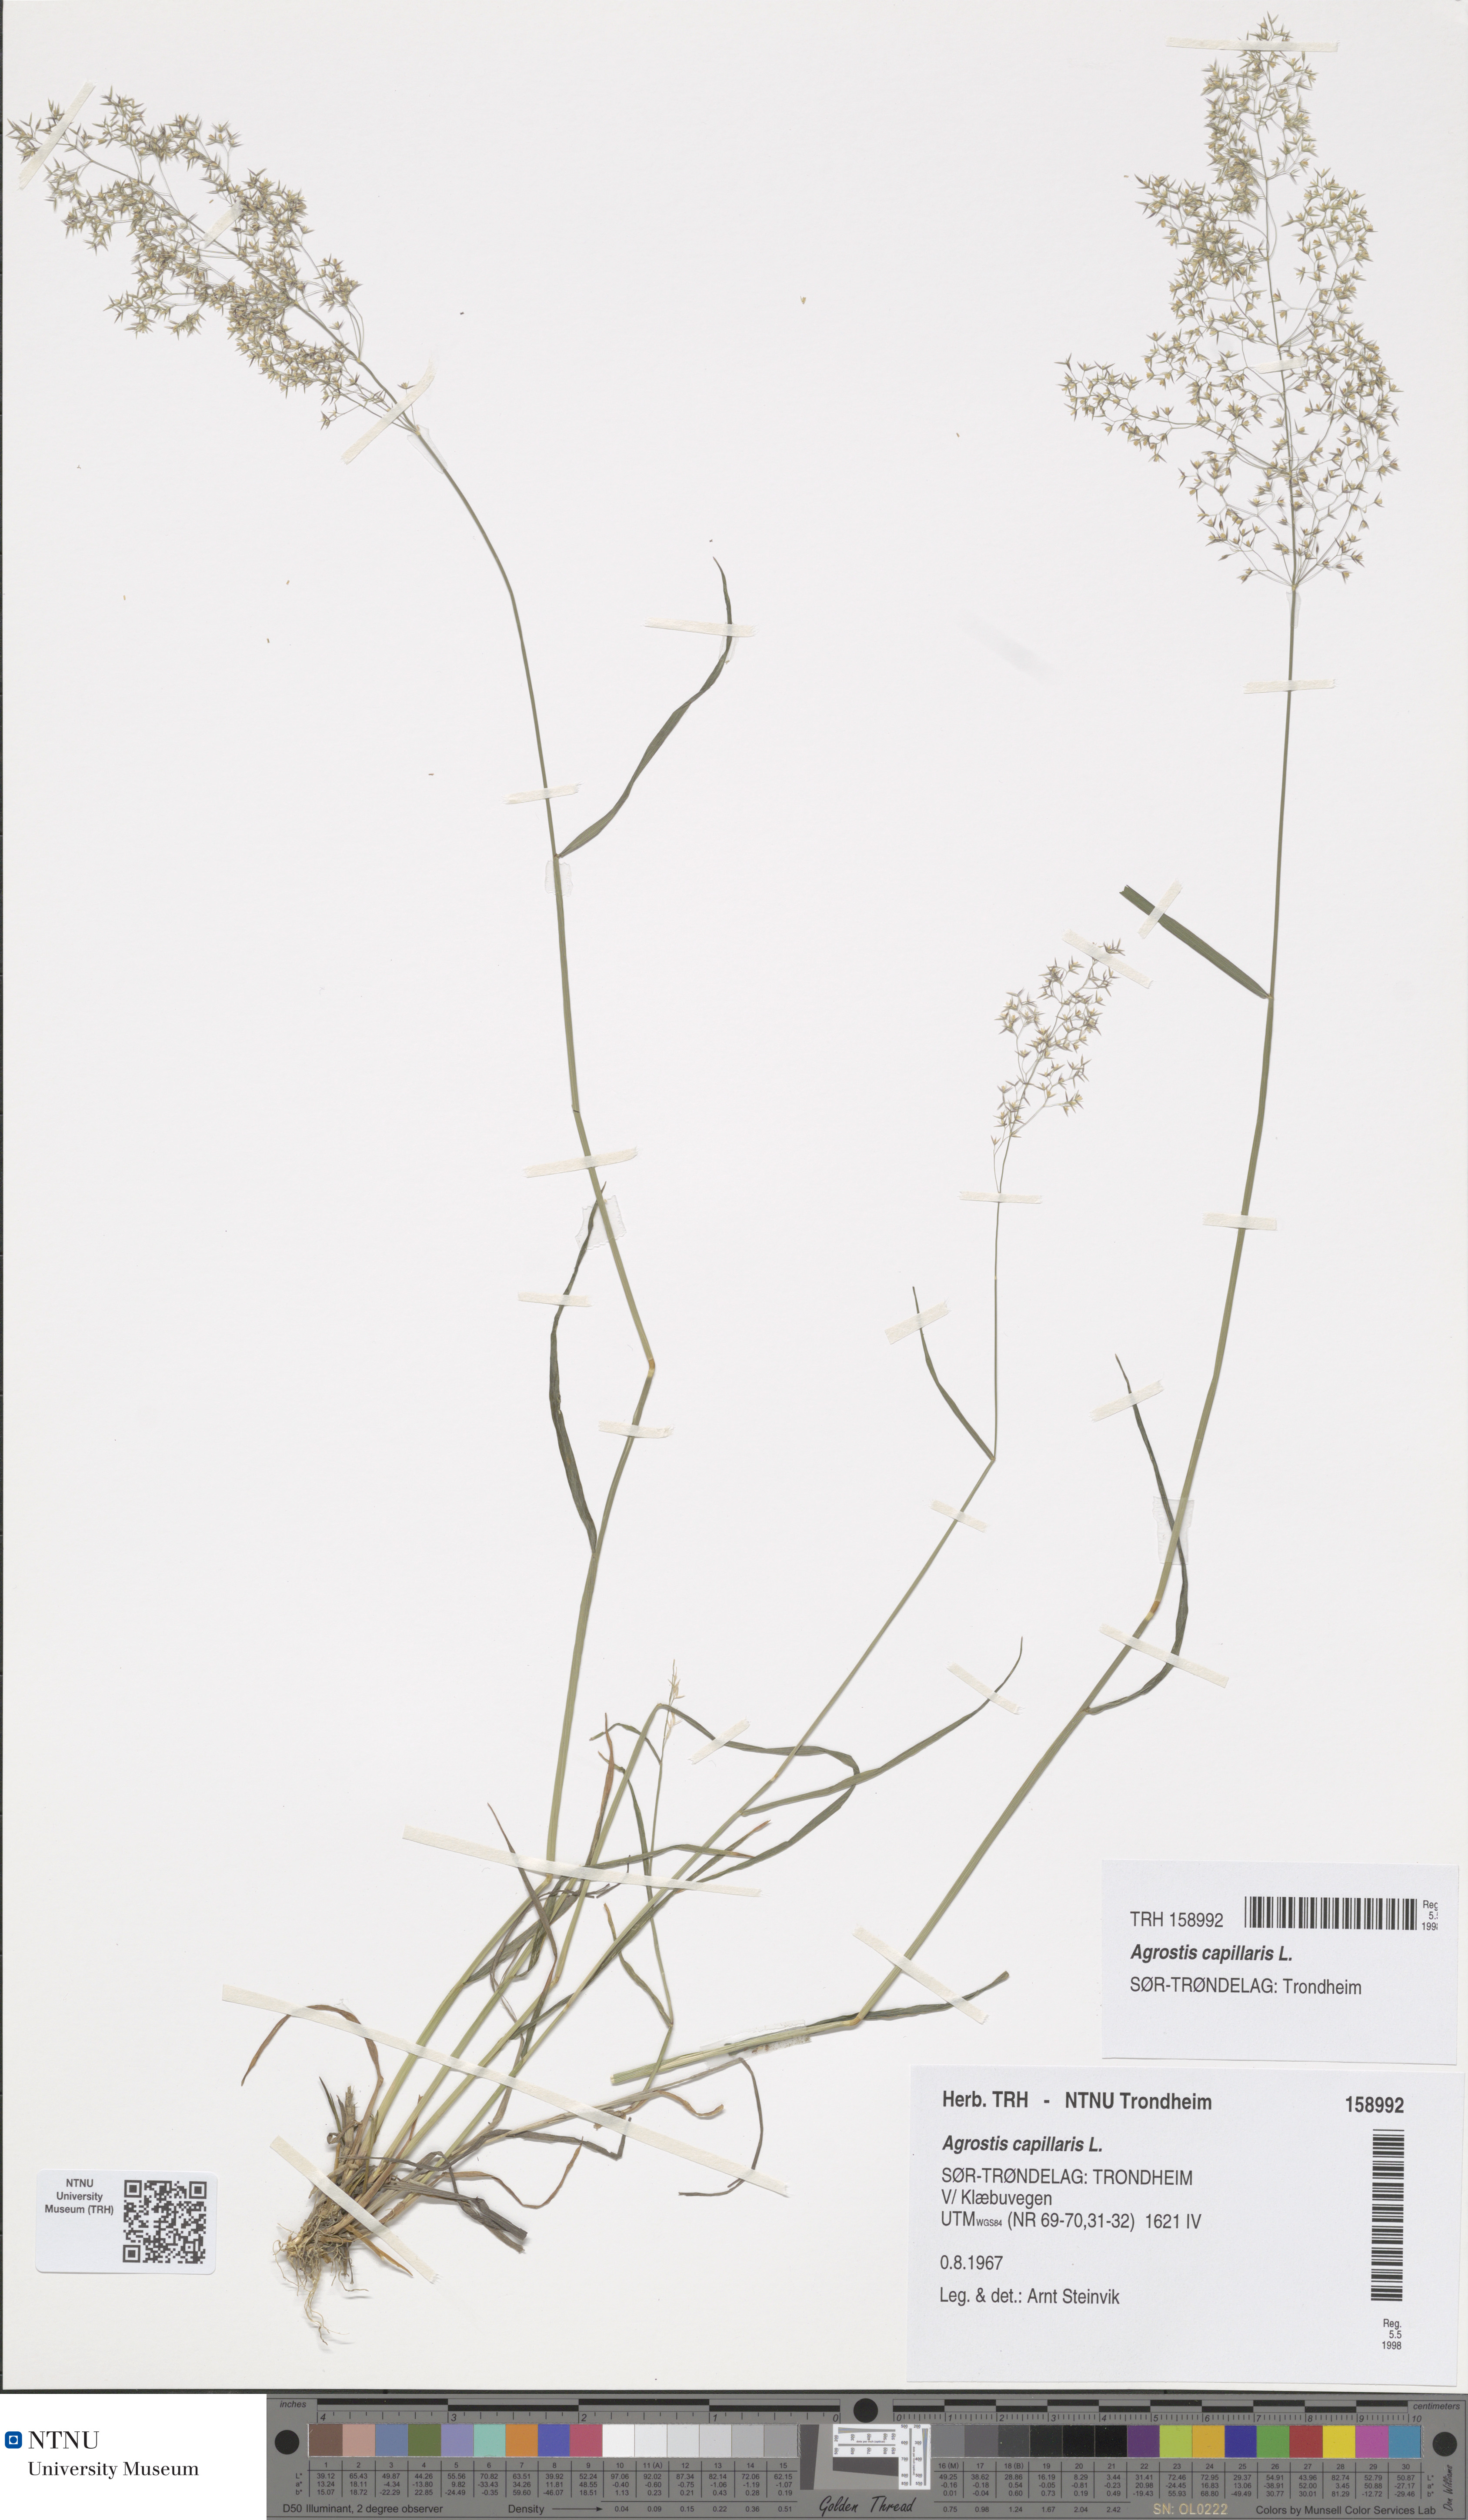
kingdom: Plantae
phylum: Tracheophyta
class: Liliopsida
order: Poales
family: Poaceae
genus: Agrostis
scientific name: Agrostis capillaris
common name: Colonial bentgrass
